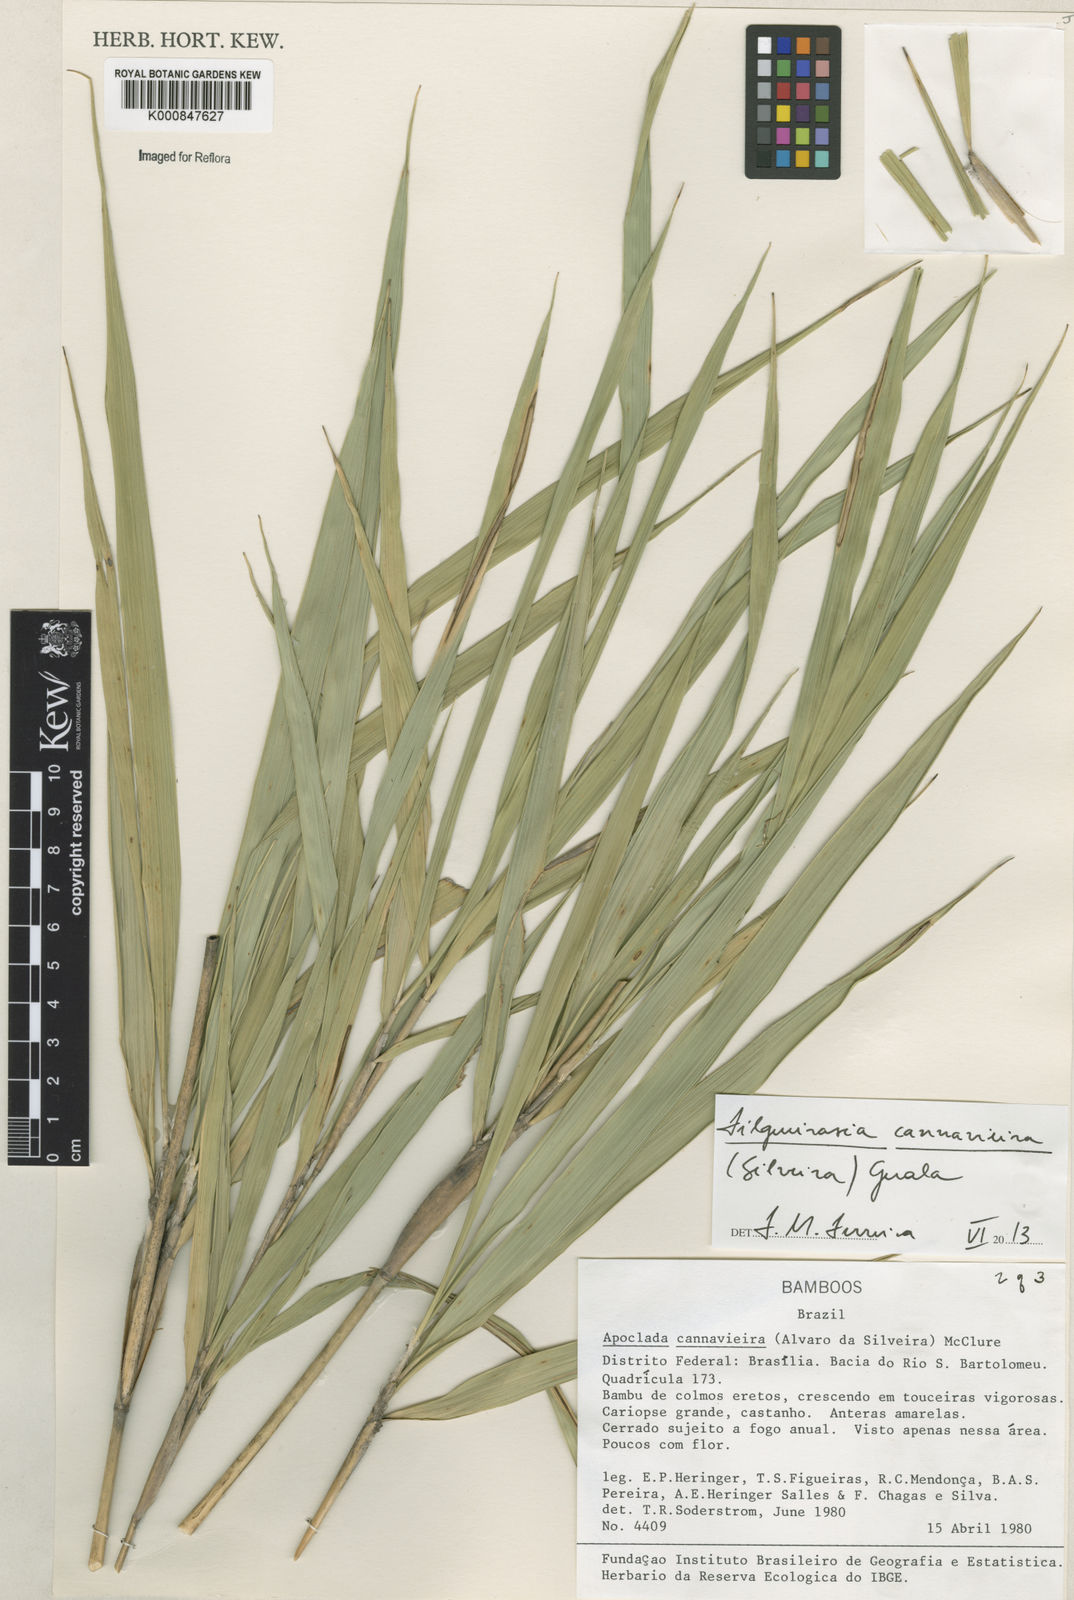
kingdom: Plantae
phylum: Tracheophyta
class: Liliopsida
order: Poales
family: Poaceae
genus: Filgueirasia
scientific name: Filgueirasia cannavieira
